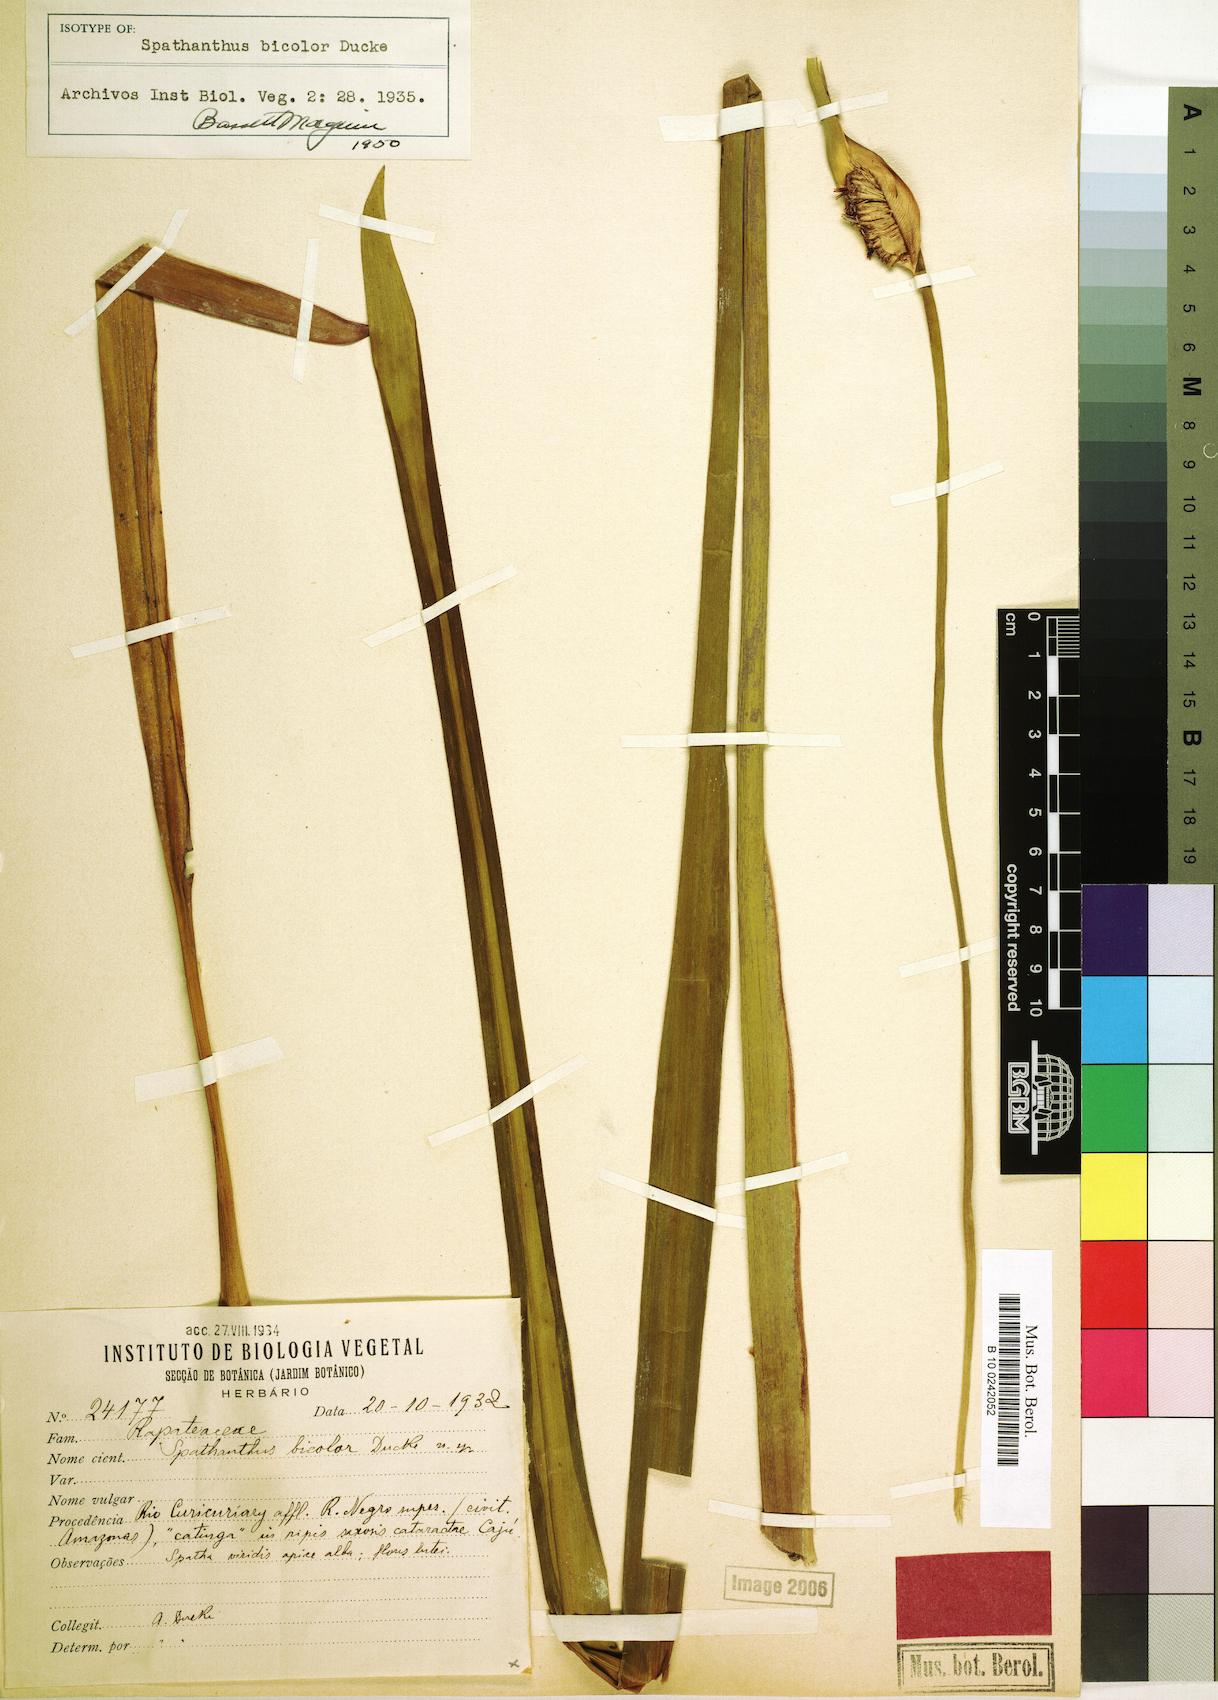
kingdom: Plantae
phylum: Tracheophyta
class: Liliopsida
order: Poales
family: Rapateaceae
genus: Spathanthus
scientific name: Spathanthus bicolor
